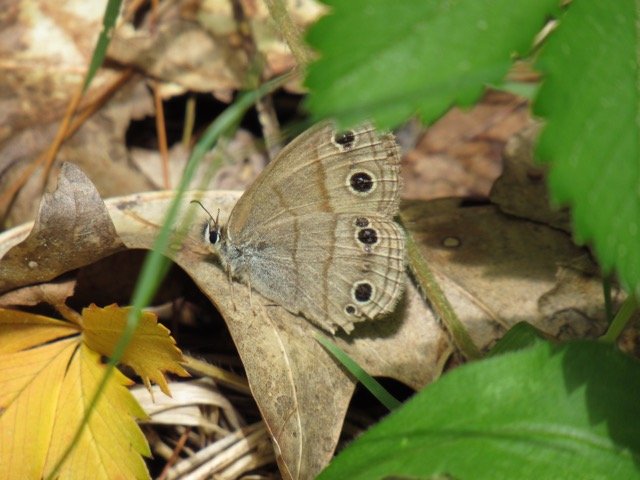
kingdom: Animalia
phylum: Arthropoda
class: Insecta
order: Lepidoptera
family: Nymphalidae
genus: Euptychia
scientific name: Euptychia cymela
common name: Little Wood Satyr
